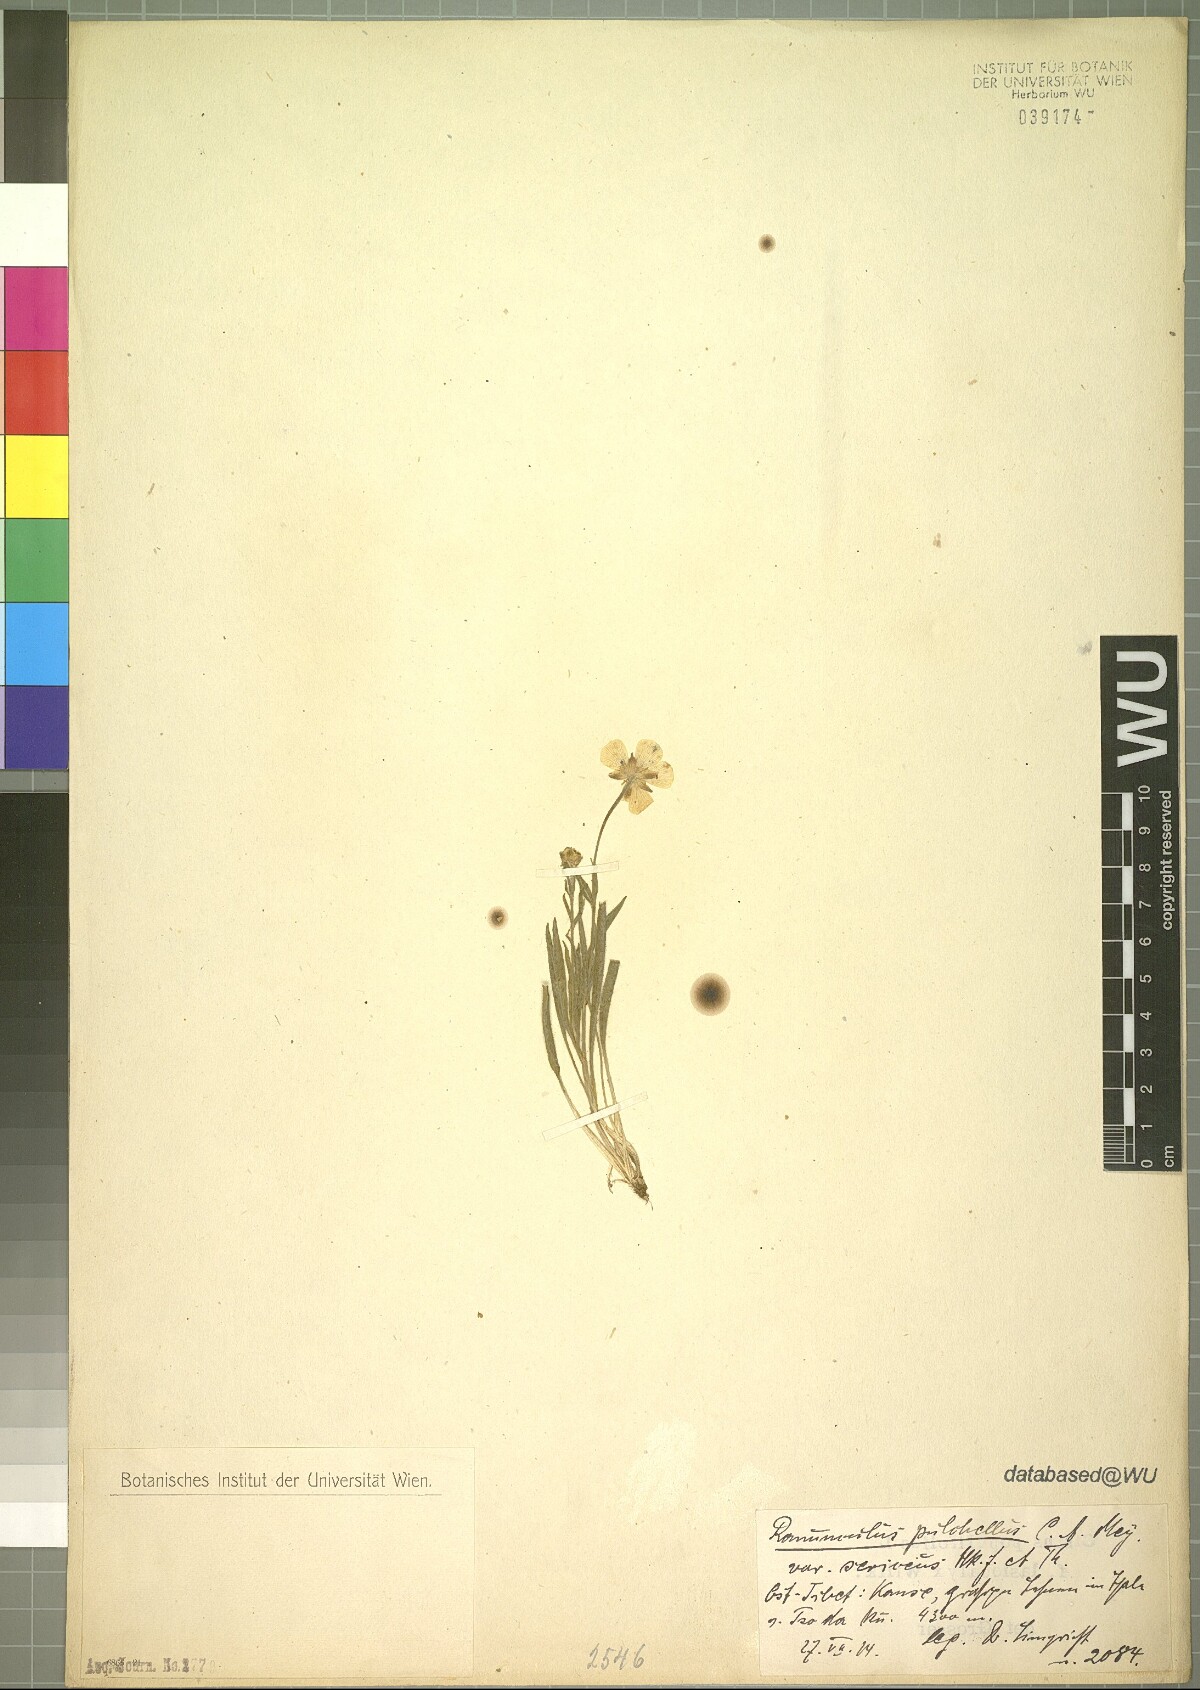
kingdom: Plantae
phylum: Tracheophyta
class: Magnoliopsida
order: Ranunculales
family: Ranunculaceae
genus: Ranunculus
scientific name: Ranunculus pulchellus
